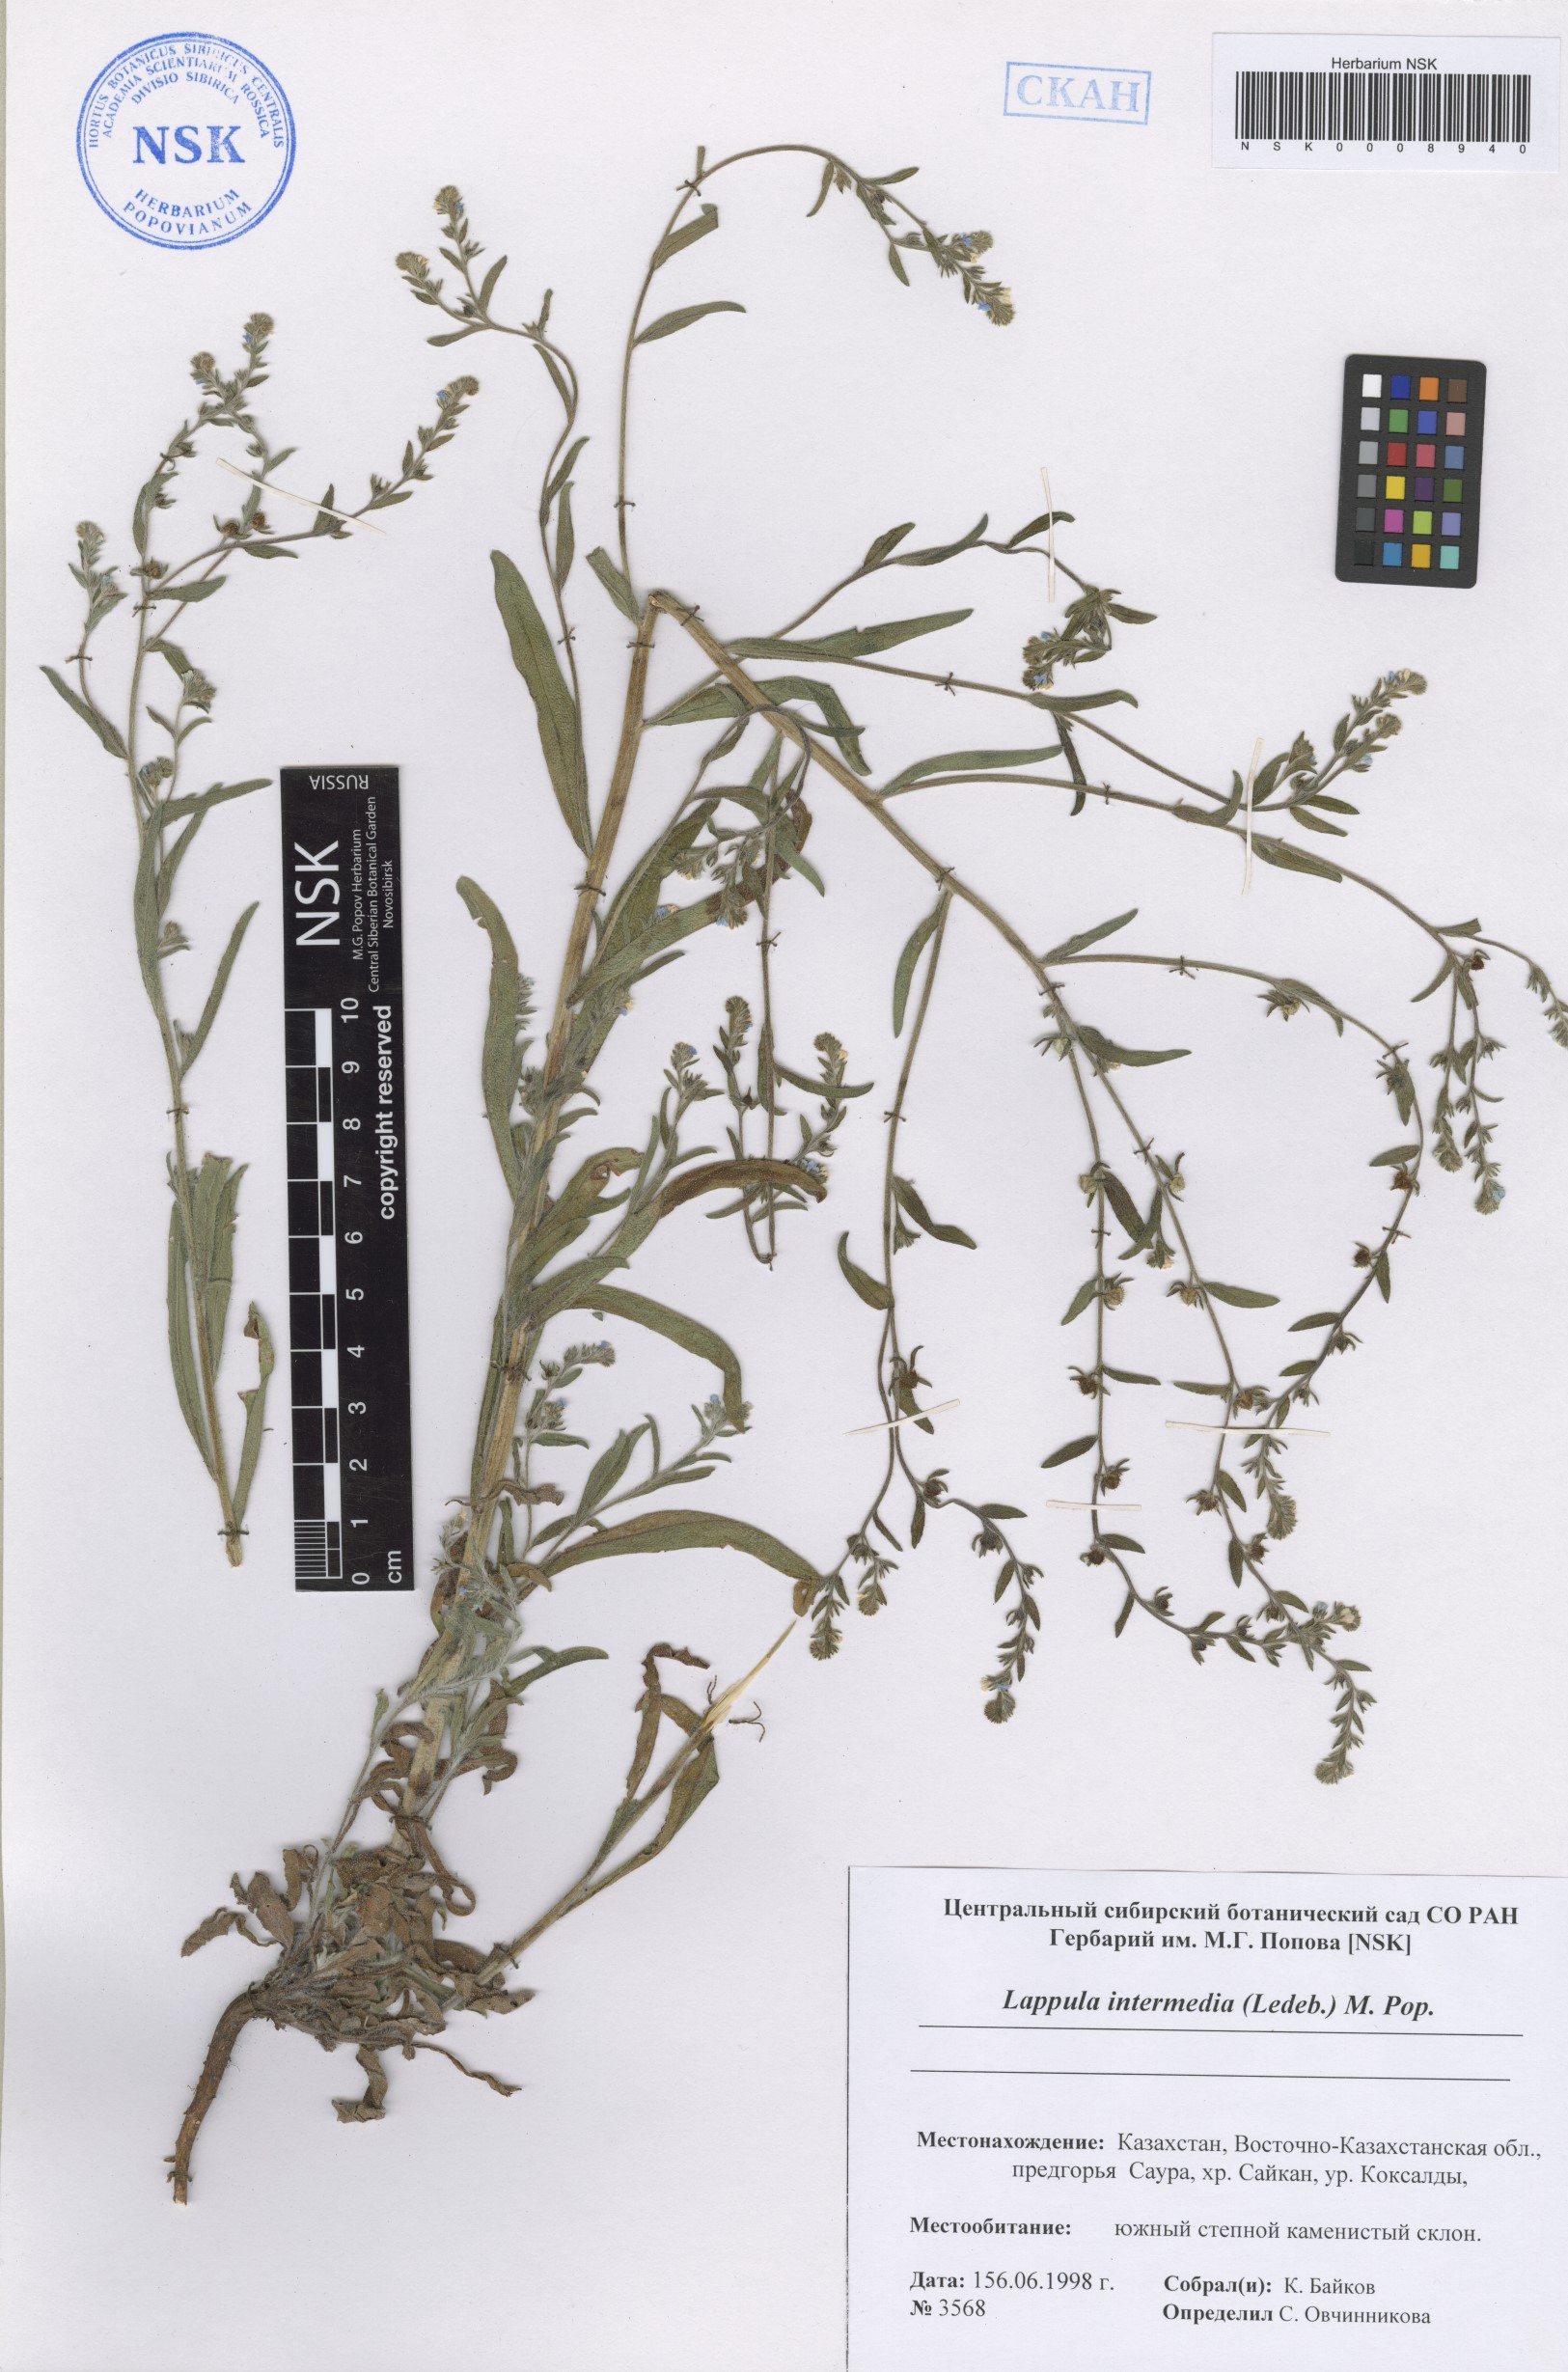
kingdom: Plantae
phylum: Tracheophyta
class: Magnoliopsida
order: Boraginales
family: Boraginaceae
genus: Lappula
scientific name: Lappula intermedia
